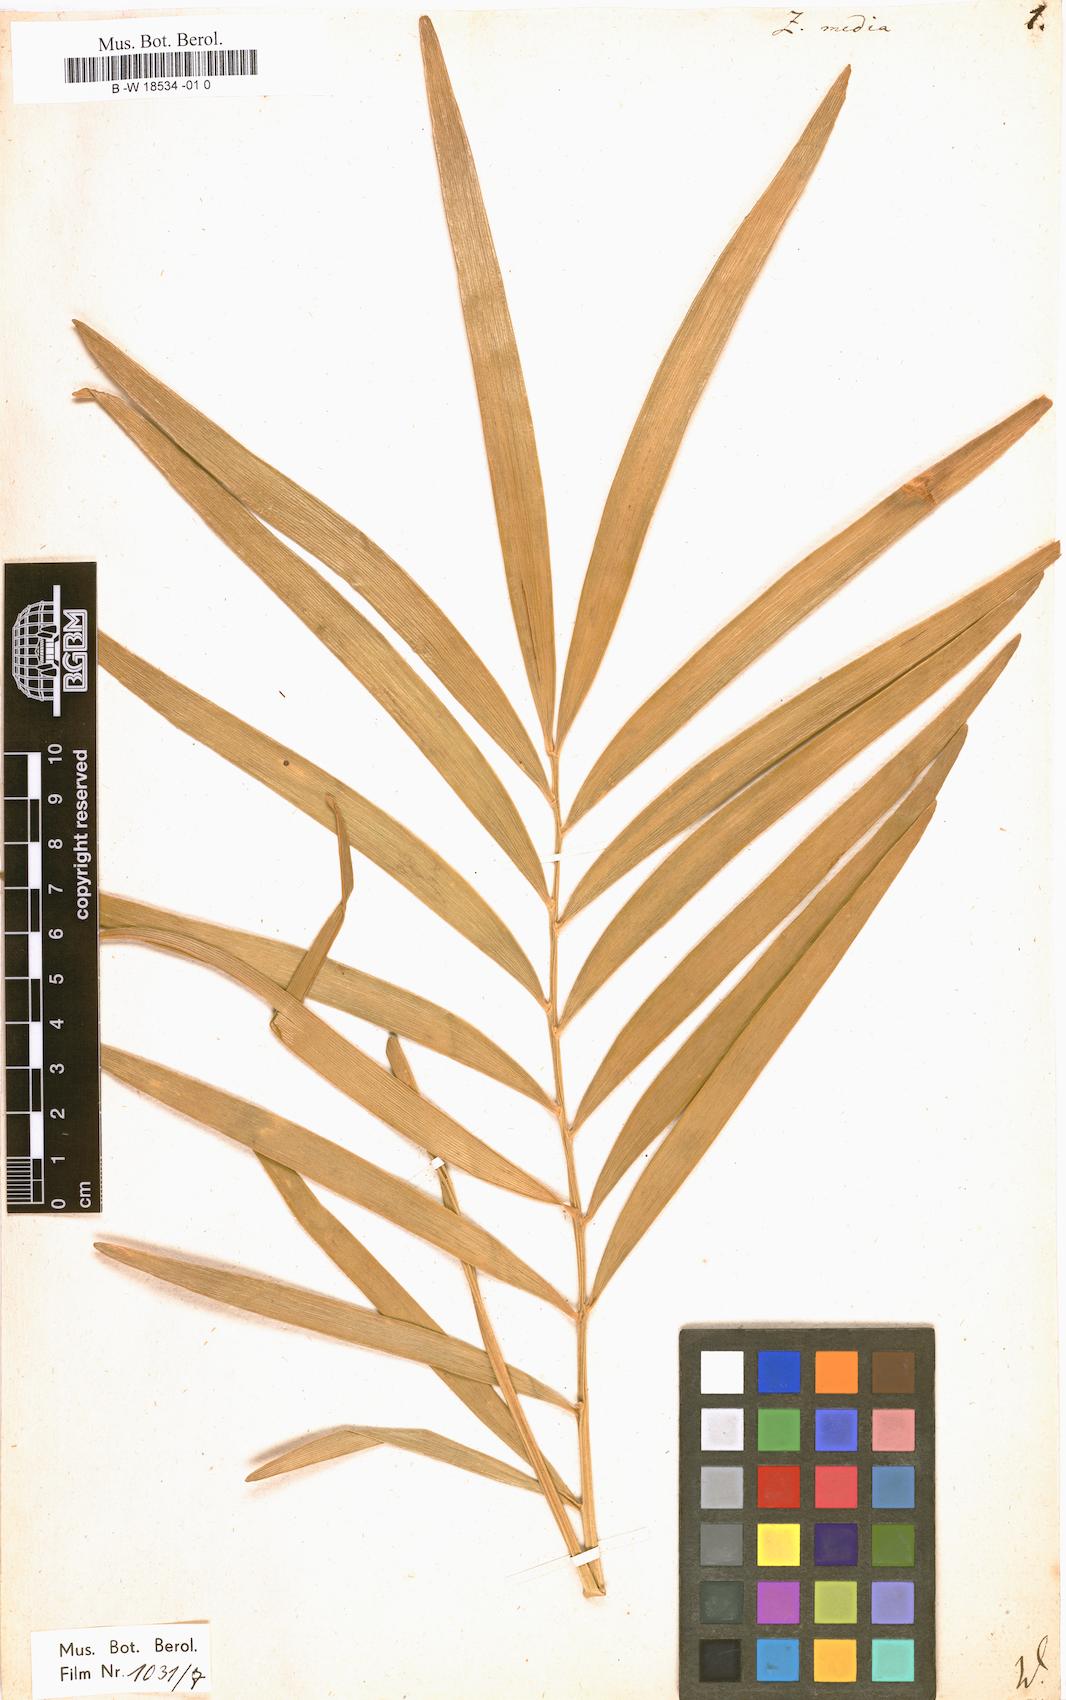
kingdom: Plantae
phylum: Tracheophyta
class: Cycadopsida
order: Cycadales
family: Zamiaceae
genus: Zamia
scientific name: Zamia integrifolia
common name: Florida arrowroot
